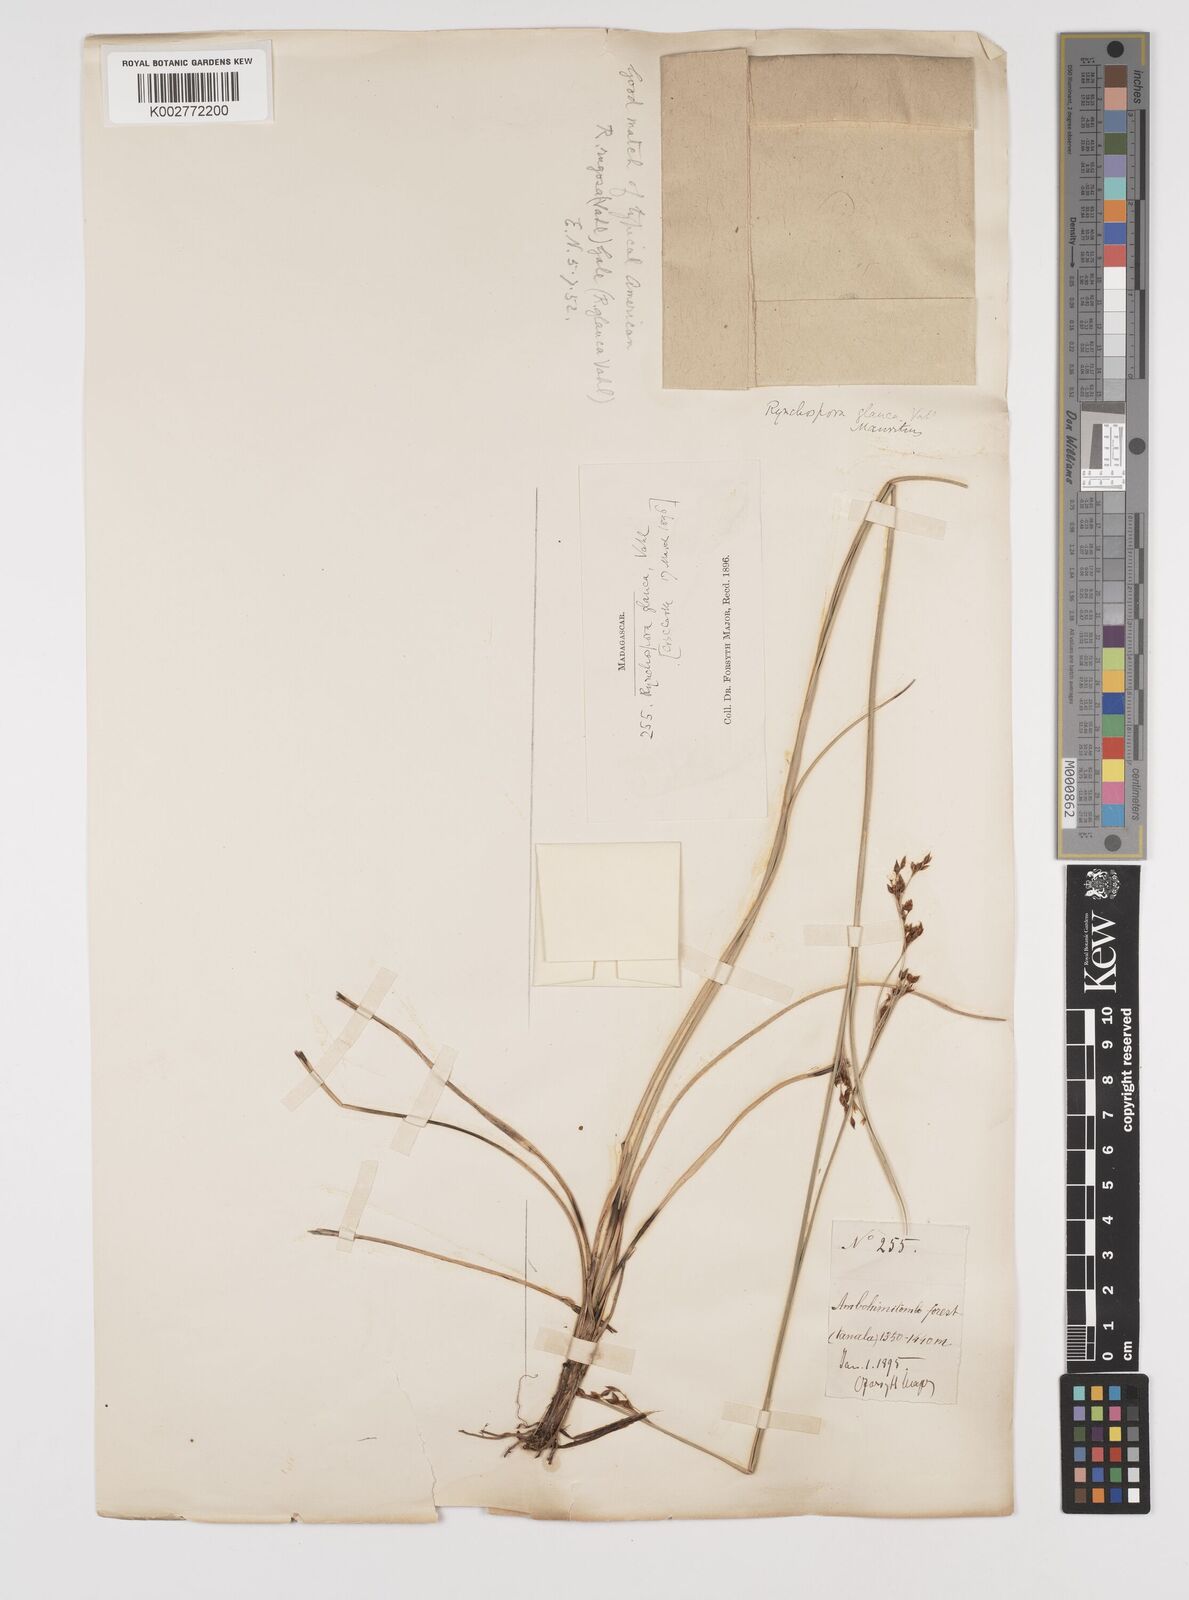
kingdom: Plantae
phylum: Tracheophyta
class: Liliopsida
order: Poales
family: Cyperaceae
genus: Rhynchospora
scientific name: Rhynchospora rugosa
